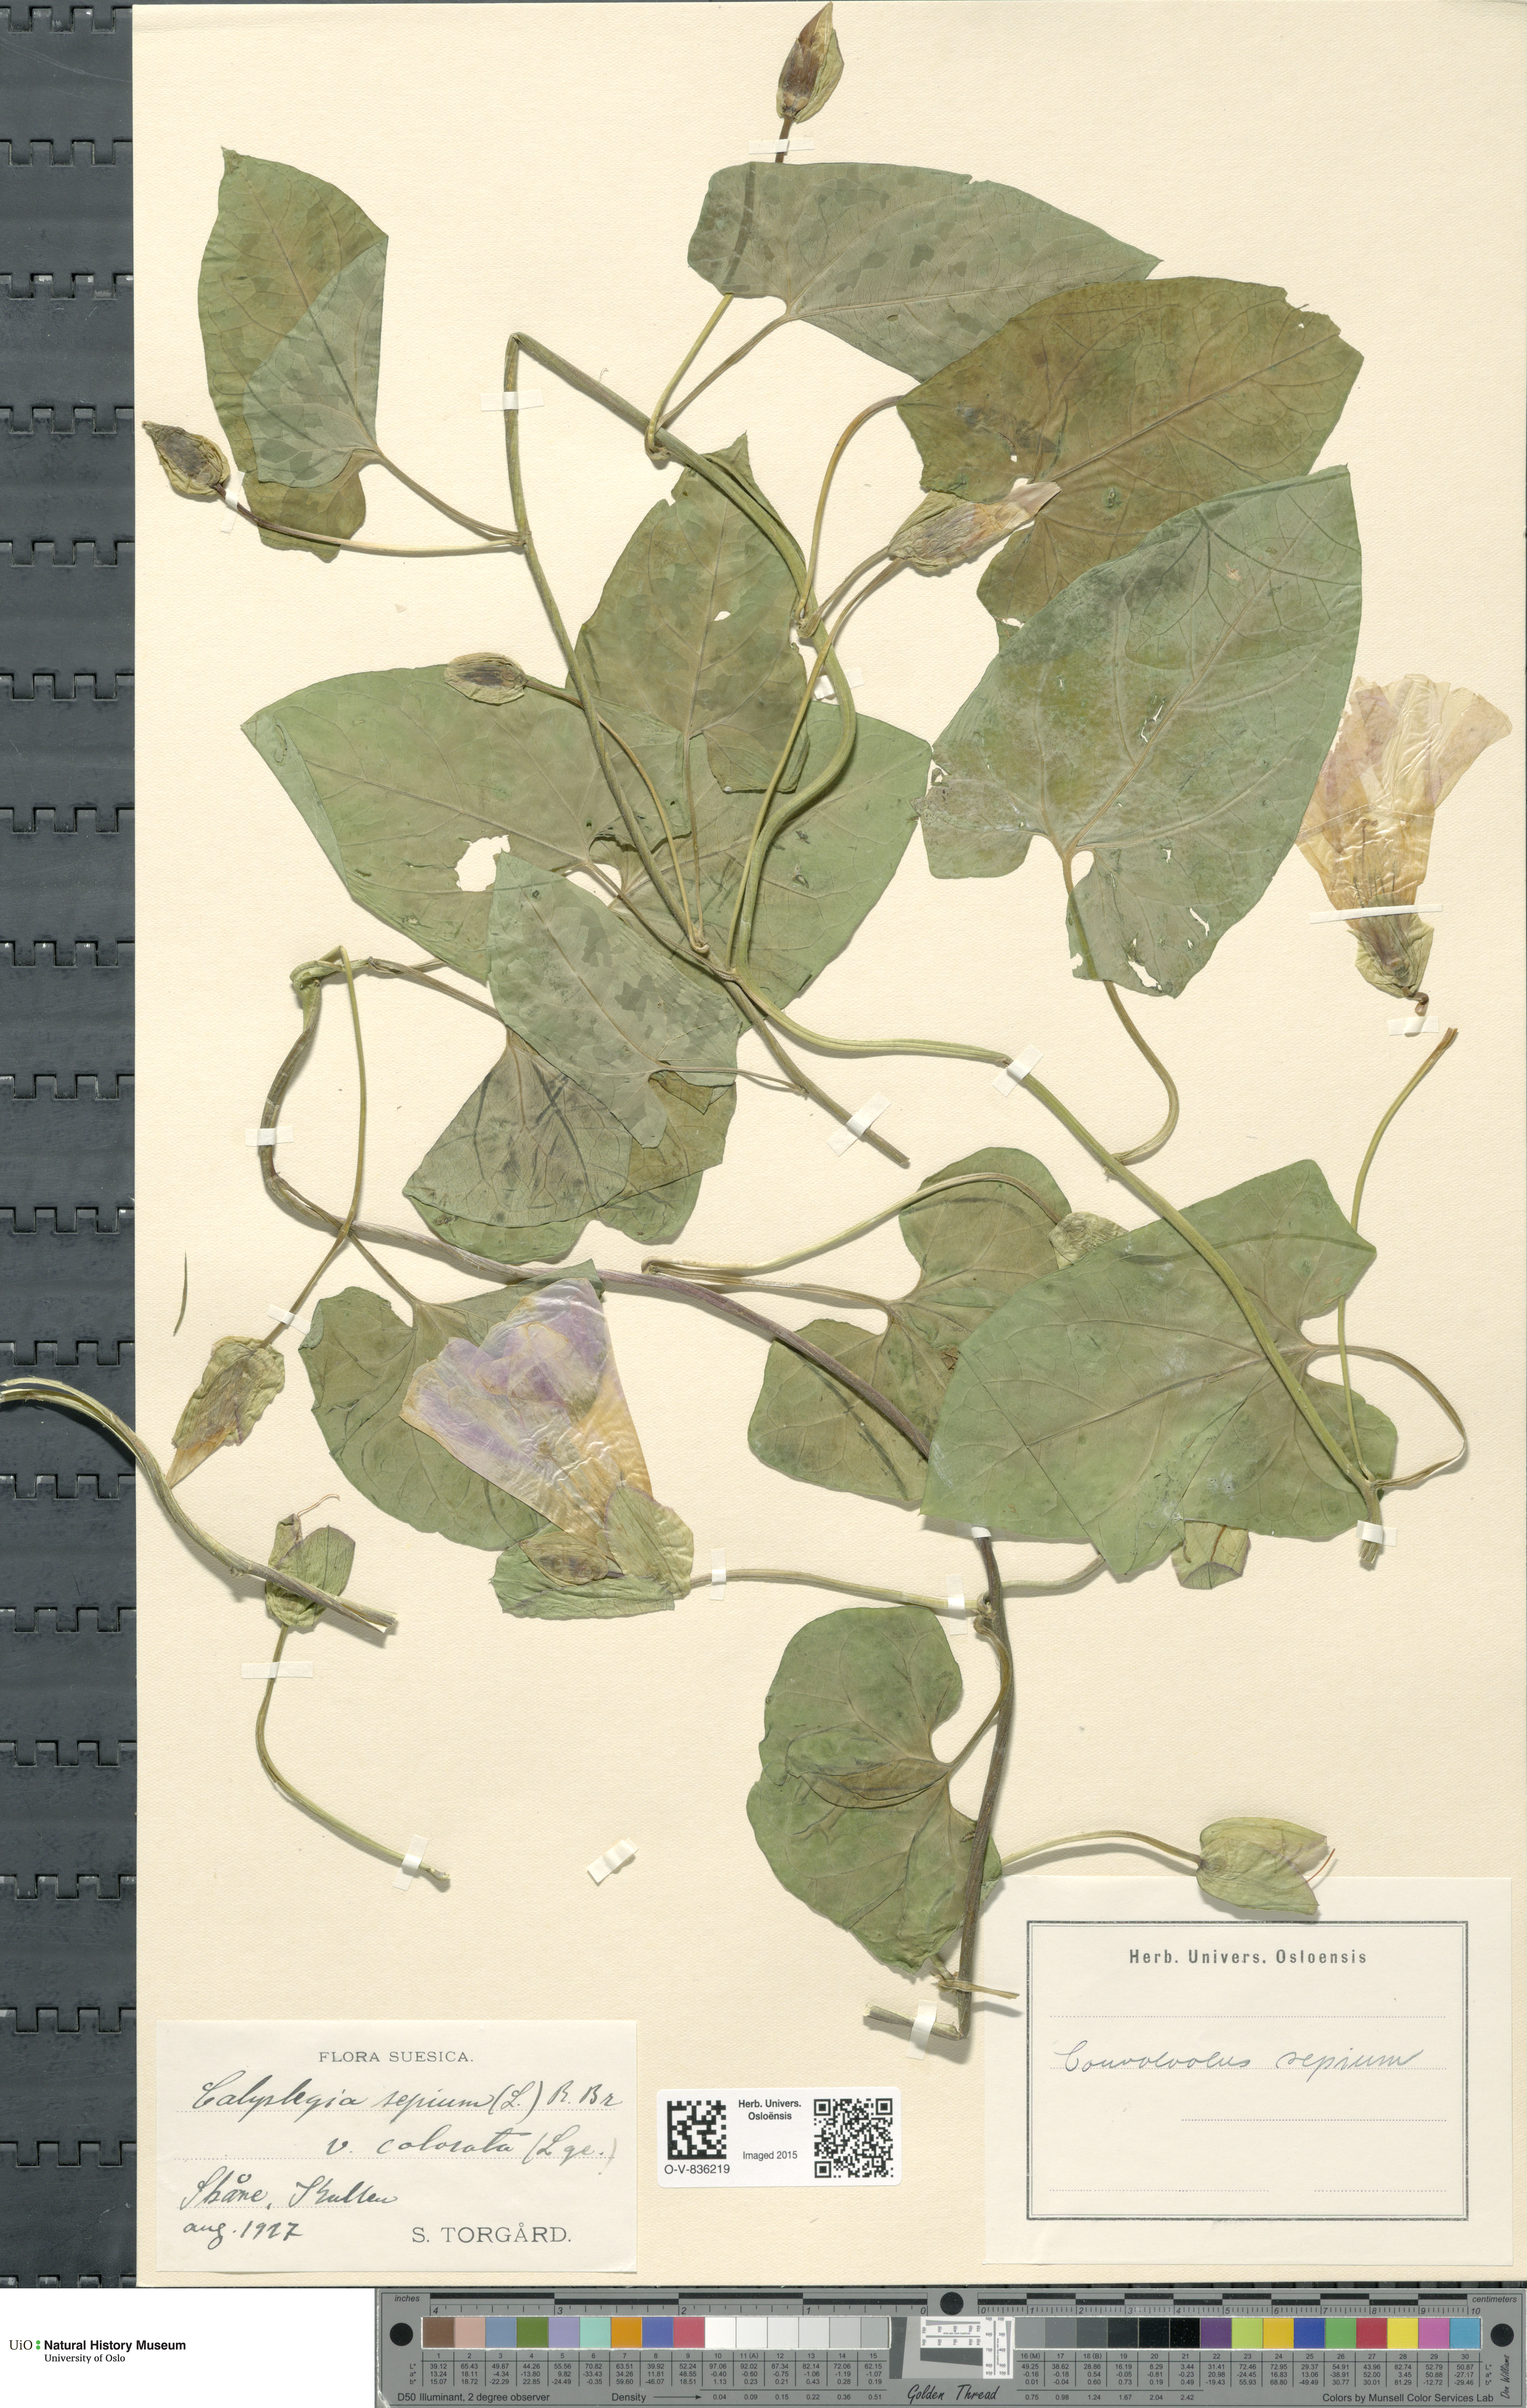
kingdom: Plantae
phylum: Tracheophyta
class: Magnoliopsida
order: Solanales
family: Convolvulaceae
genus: Calystegia
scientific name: Calystegia sepium
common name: Hedge bindweed
